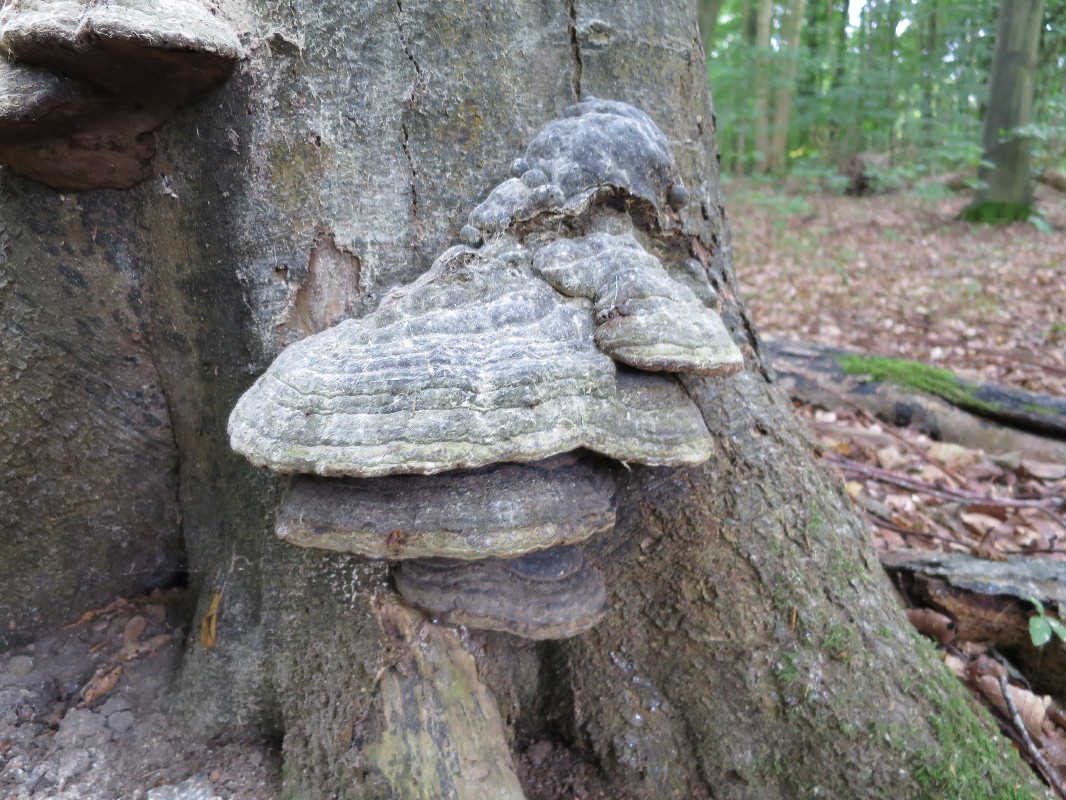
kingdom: Fungi
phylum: Basidiomycota
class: Agaricomycetes
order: Polyporales
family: Polyporaceae
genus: Fomes
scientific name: Fomes fomentarius
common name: tøndersvamp
